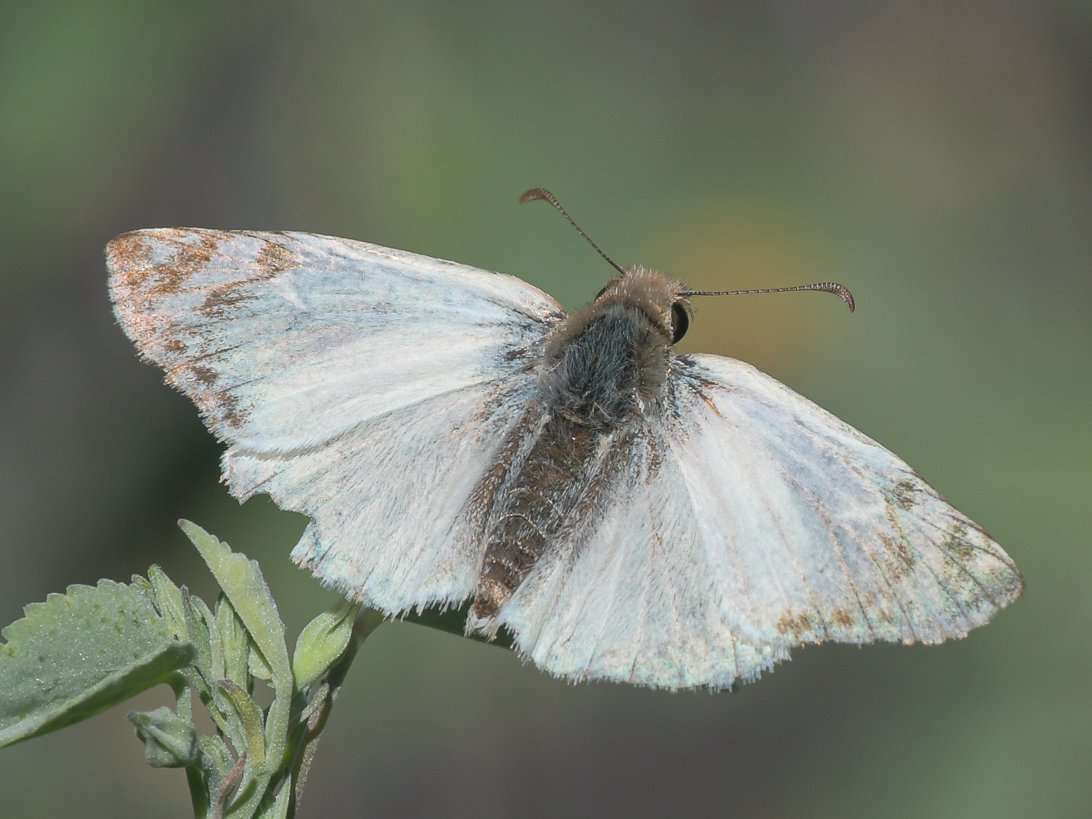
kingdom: Animalia
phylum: Arthropoda
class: Insecta
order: Lepidoptera
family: Hesperiidae
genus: Heliopetes
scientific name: Heliopetes laviana
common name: Laviana White-Skipper
